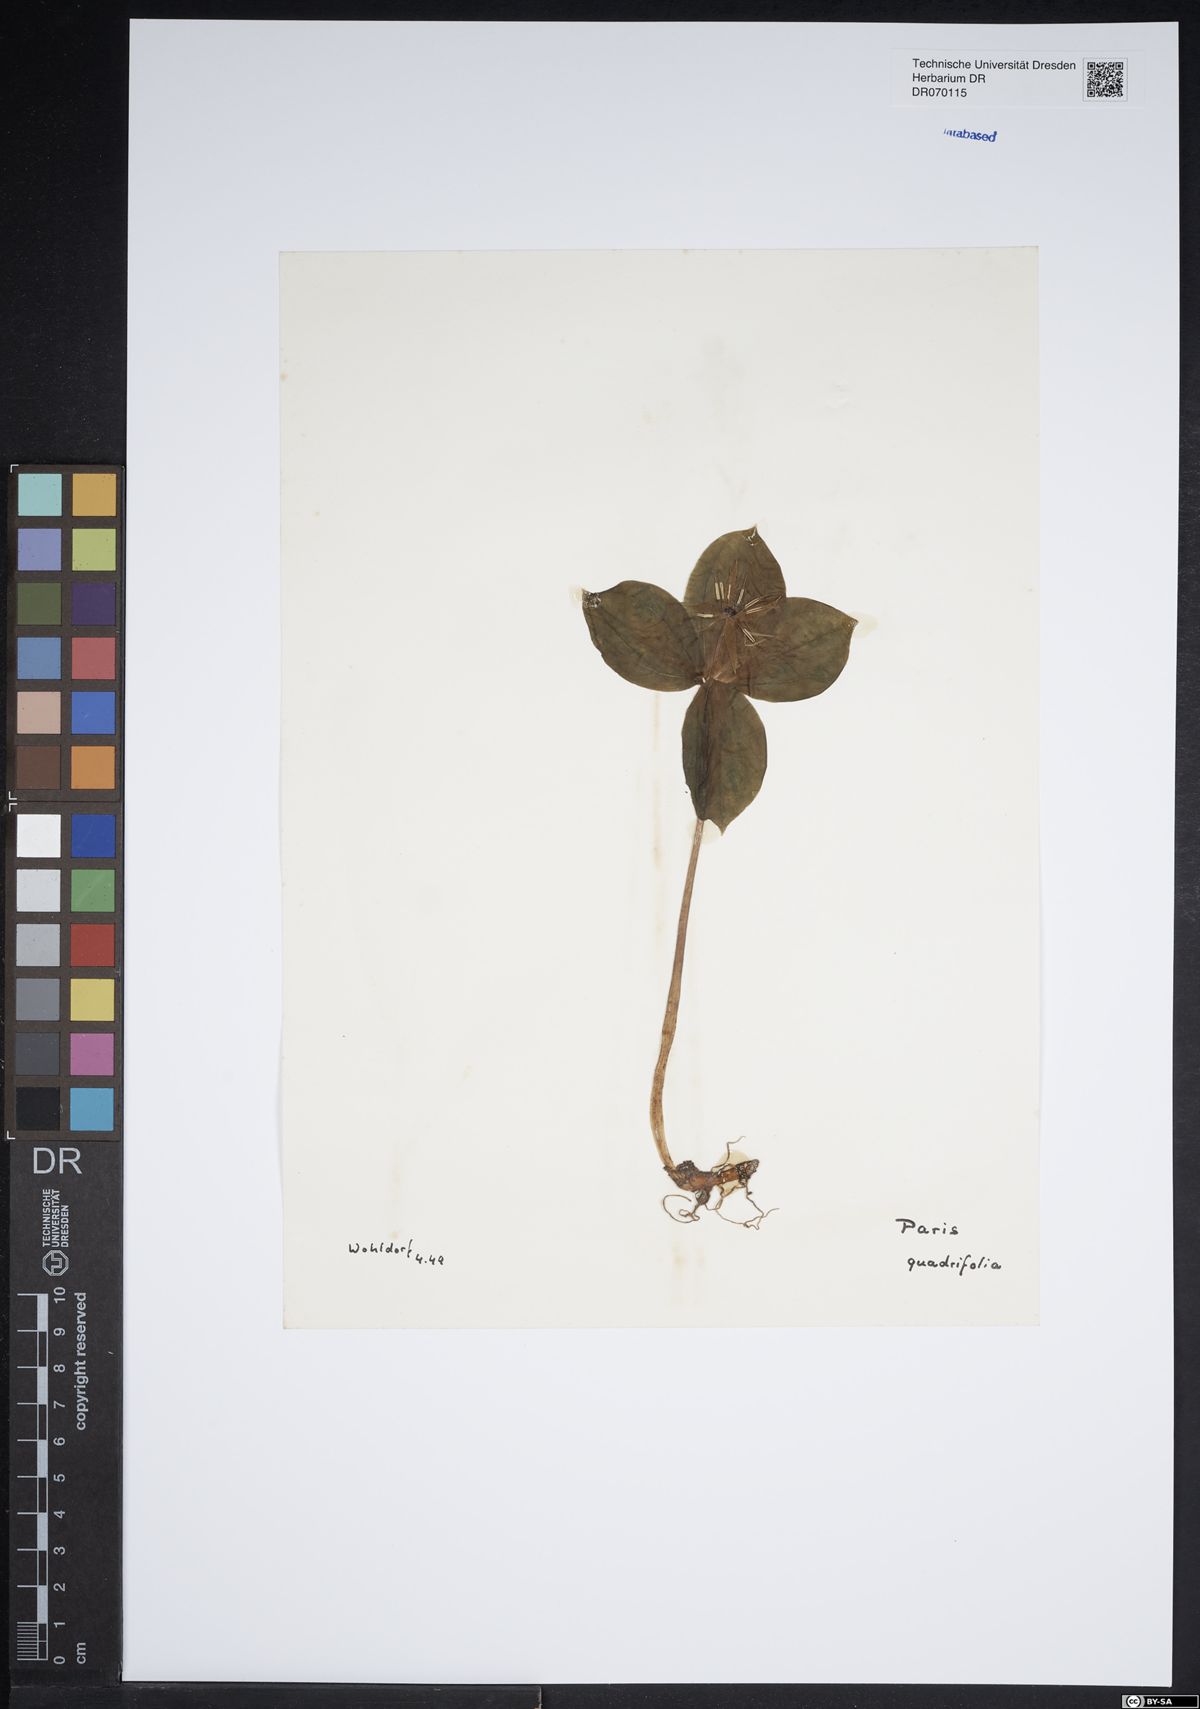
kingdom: Plantae
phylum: Tracheophyta
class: Liliopsida
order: Liliales
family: Melanthiaceae
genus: Paris
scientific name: Paris quadrifolia
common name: Herb-paris
